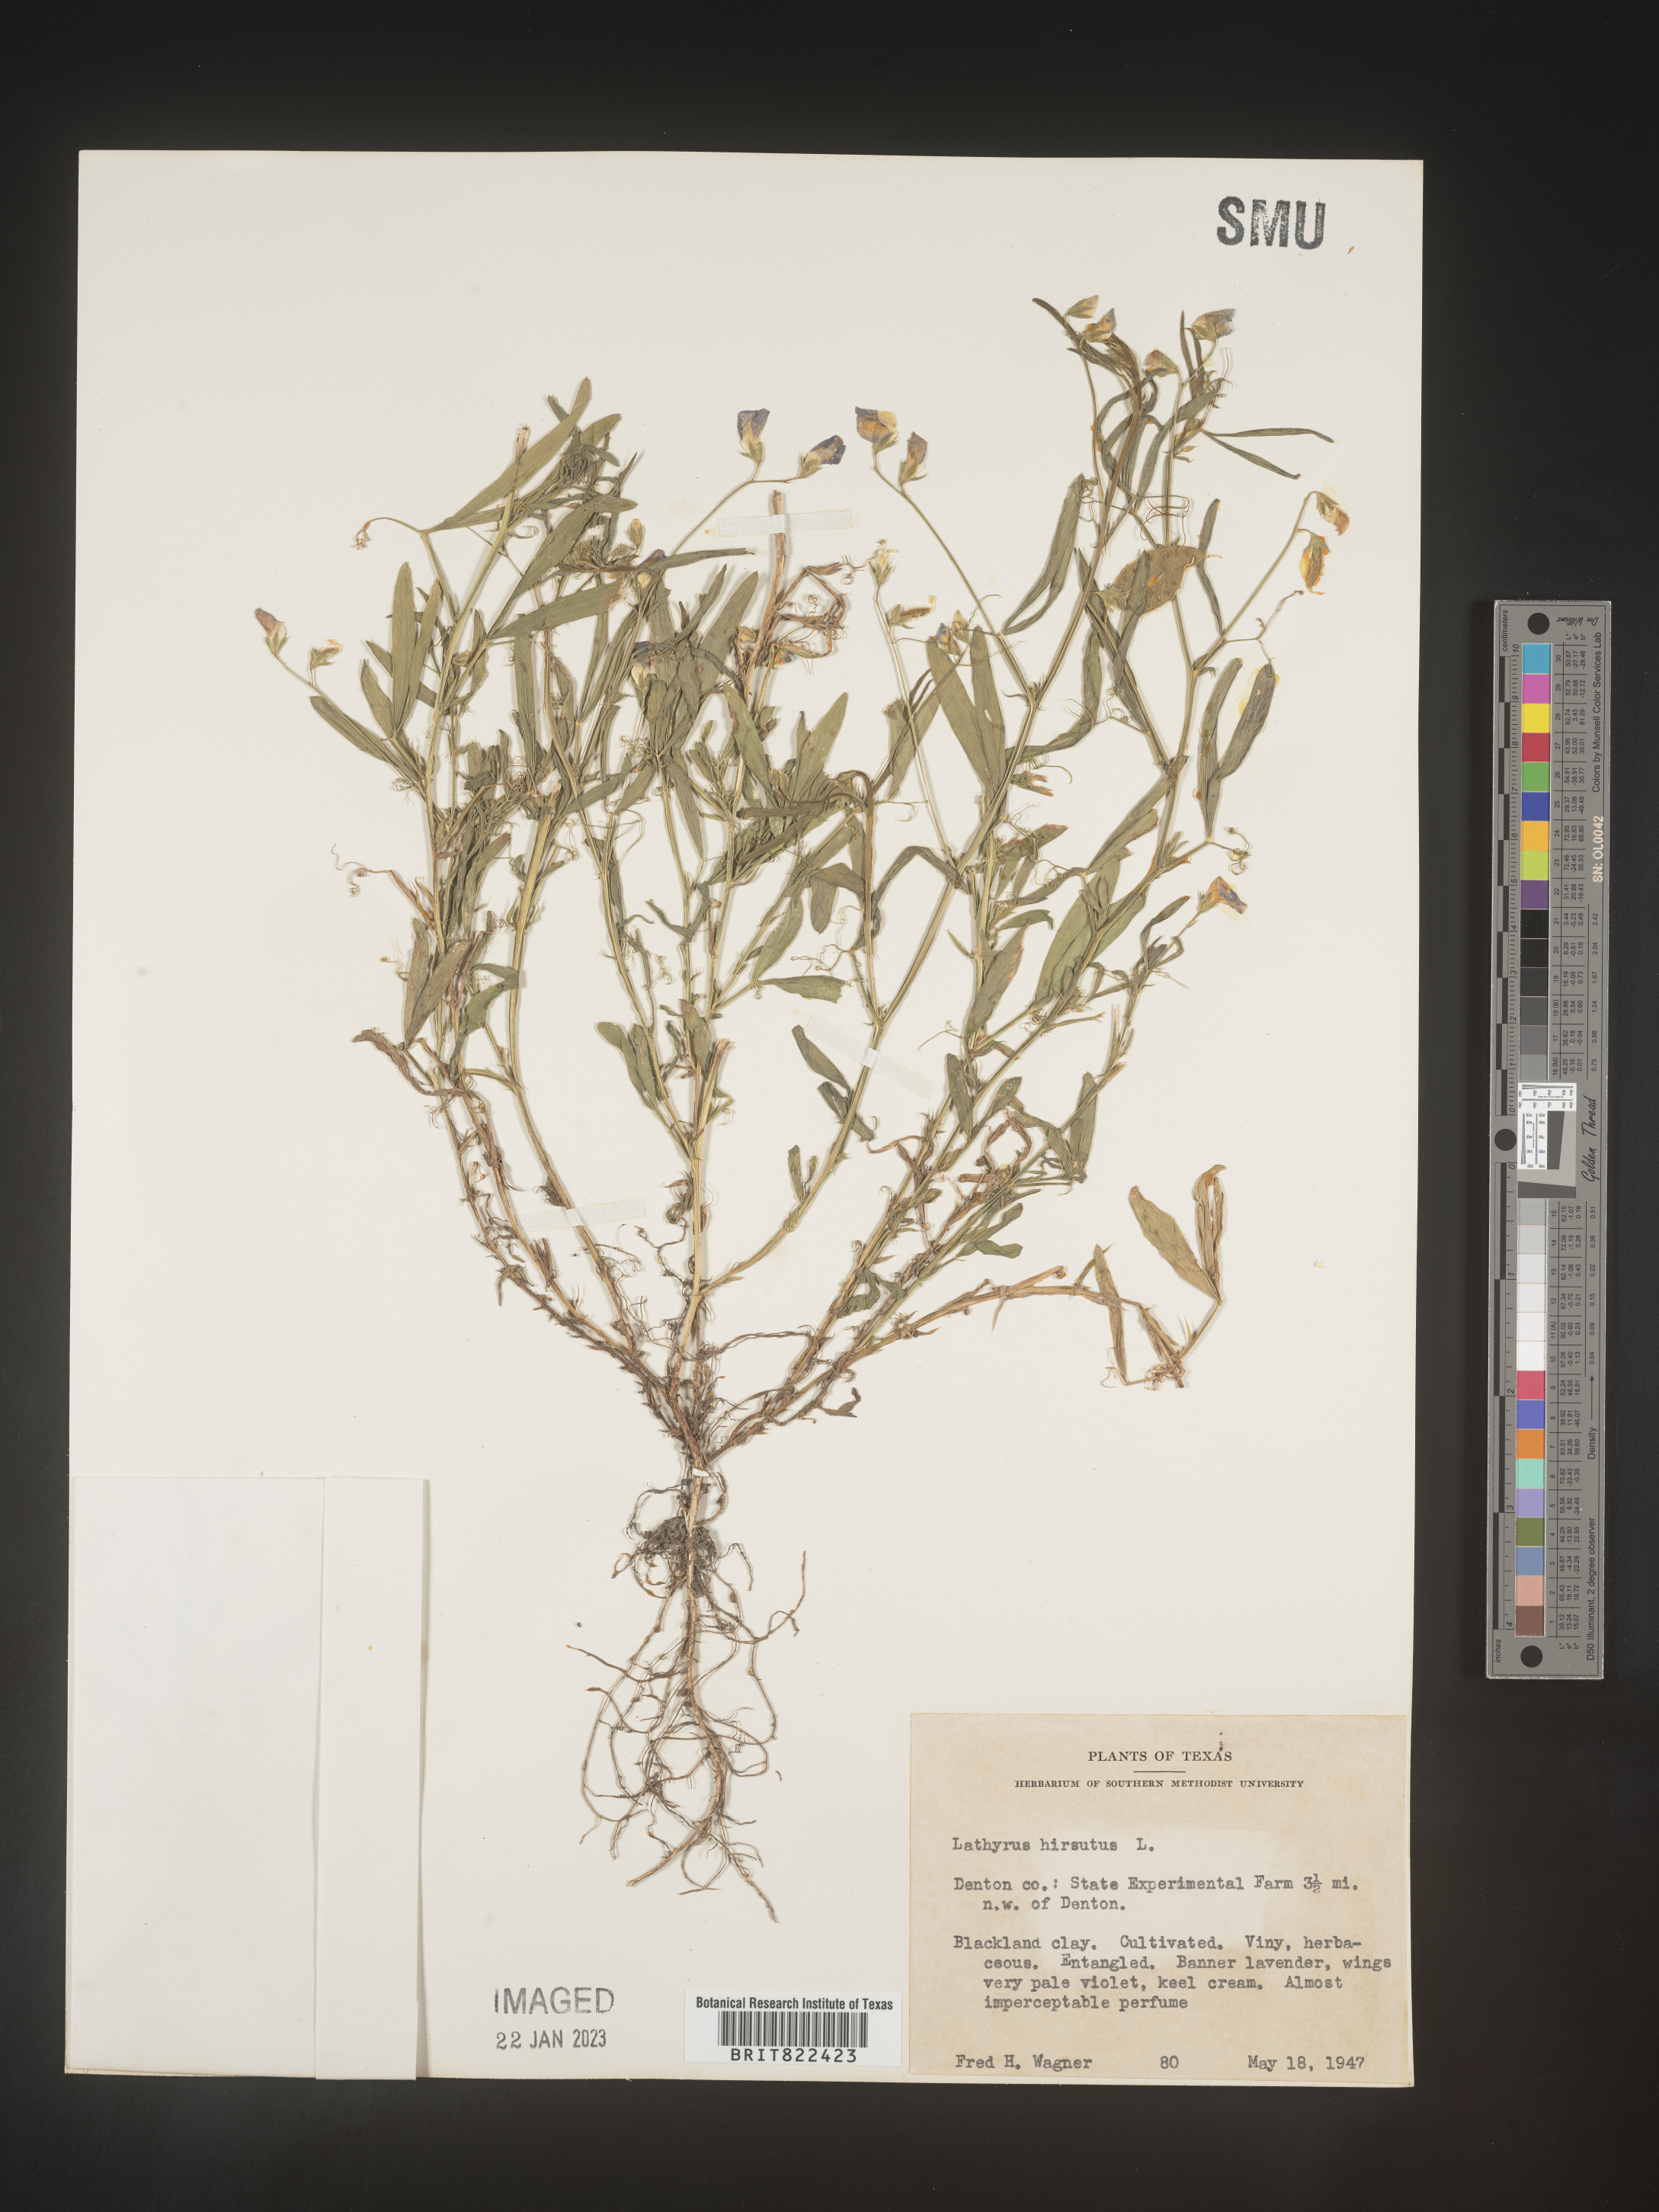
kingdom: Plantae
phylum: Tracheophyta
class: Magnoliopsida
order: Fabales
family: Fabaceae
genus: Lathyrus
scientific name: Lathyrus
